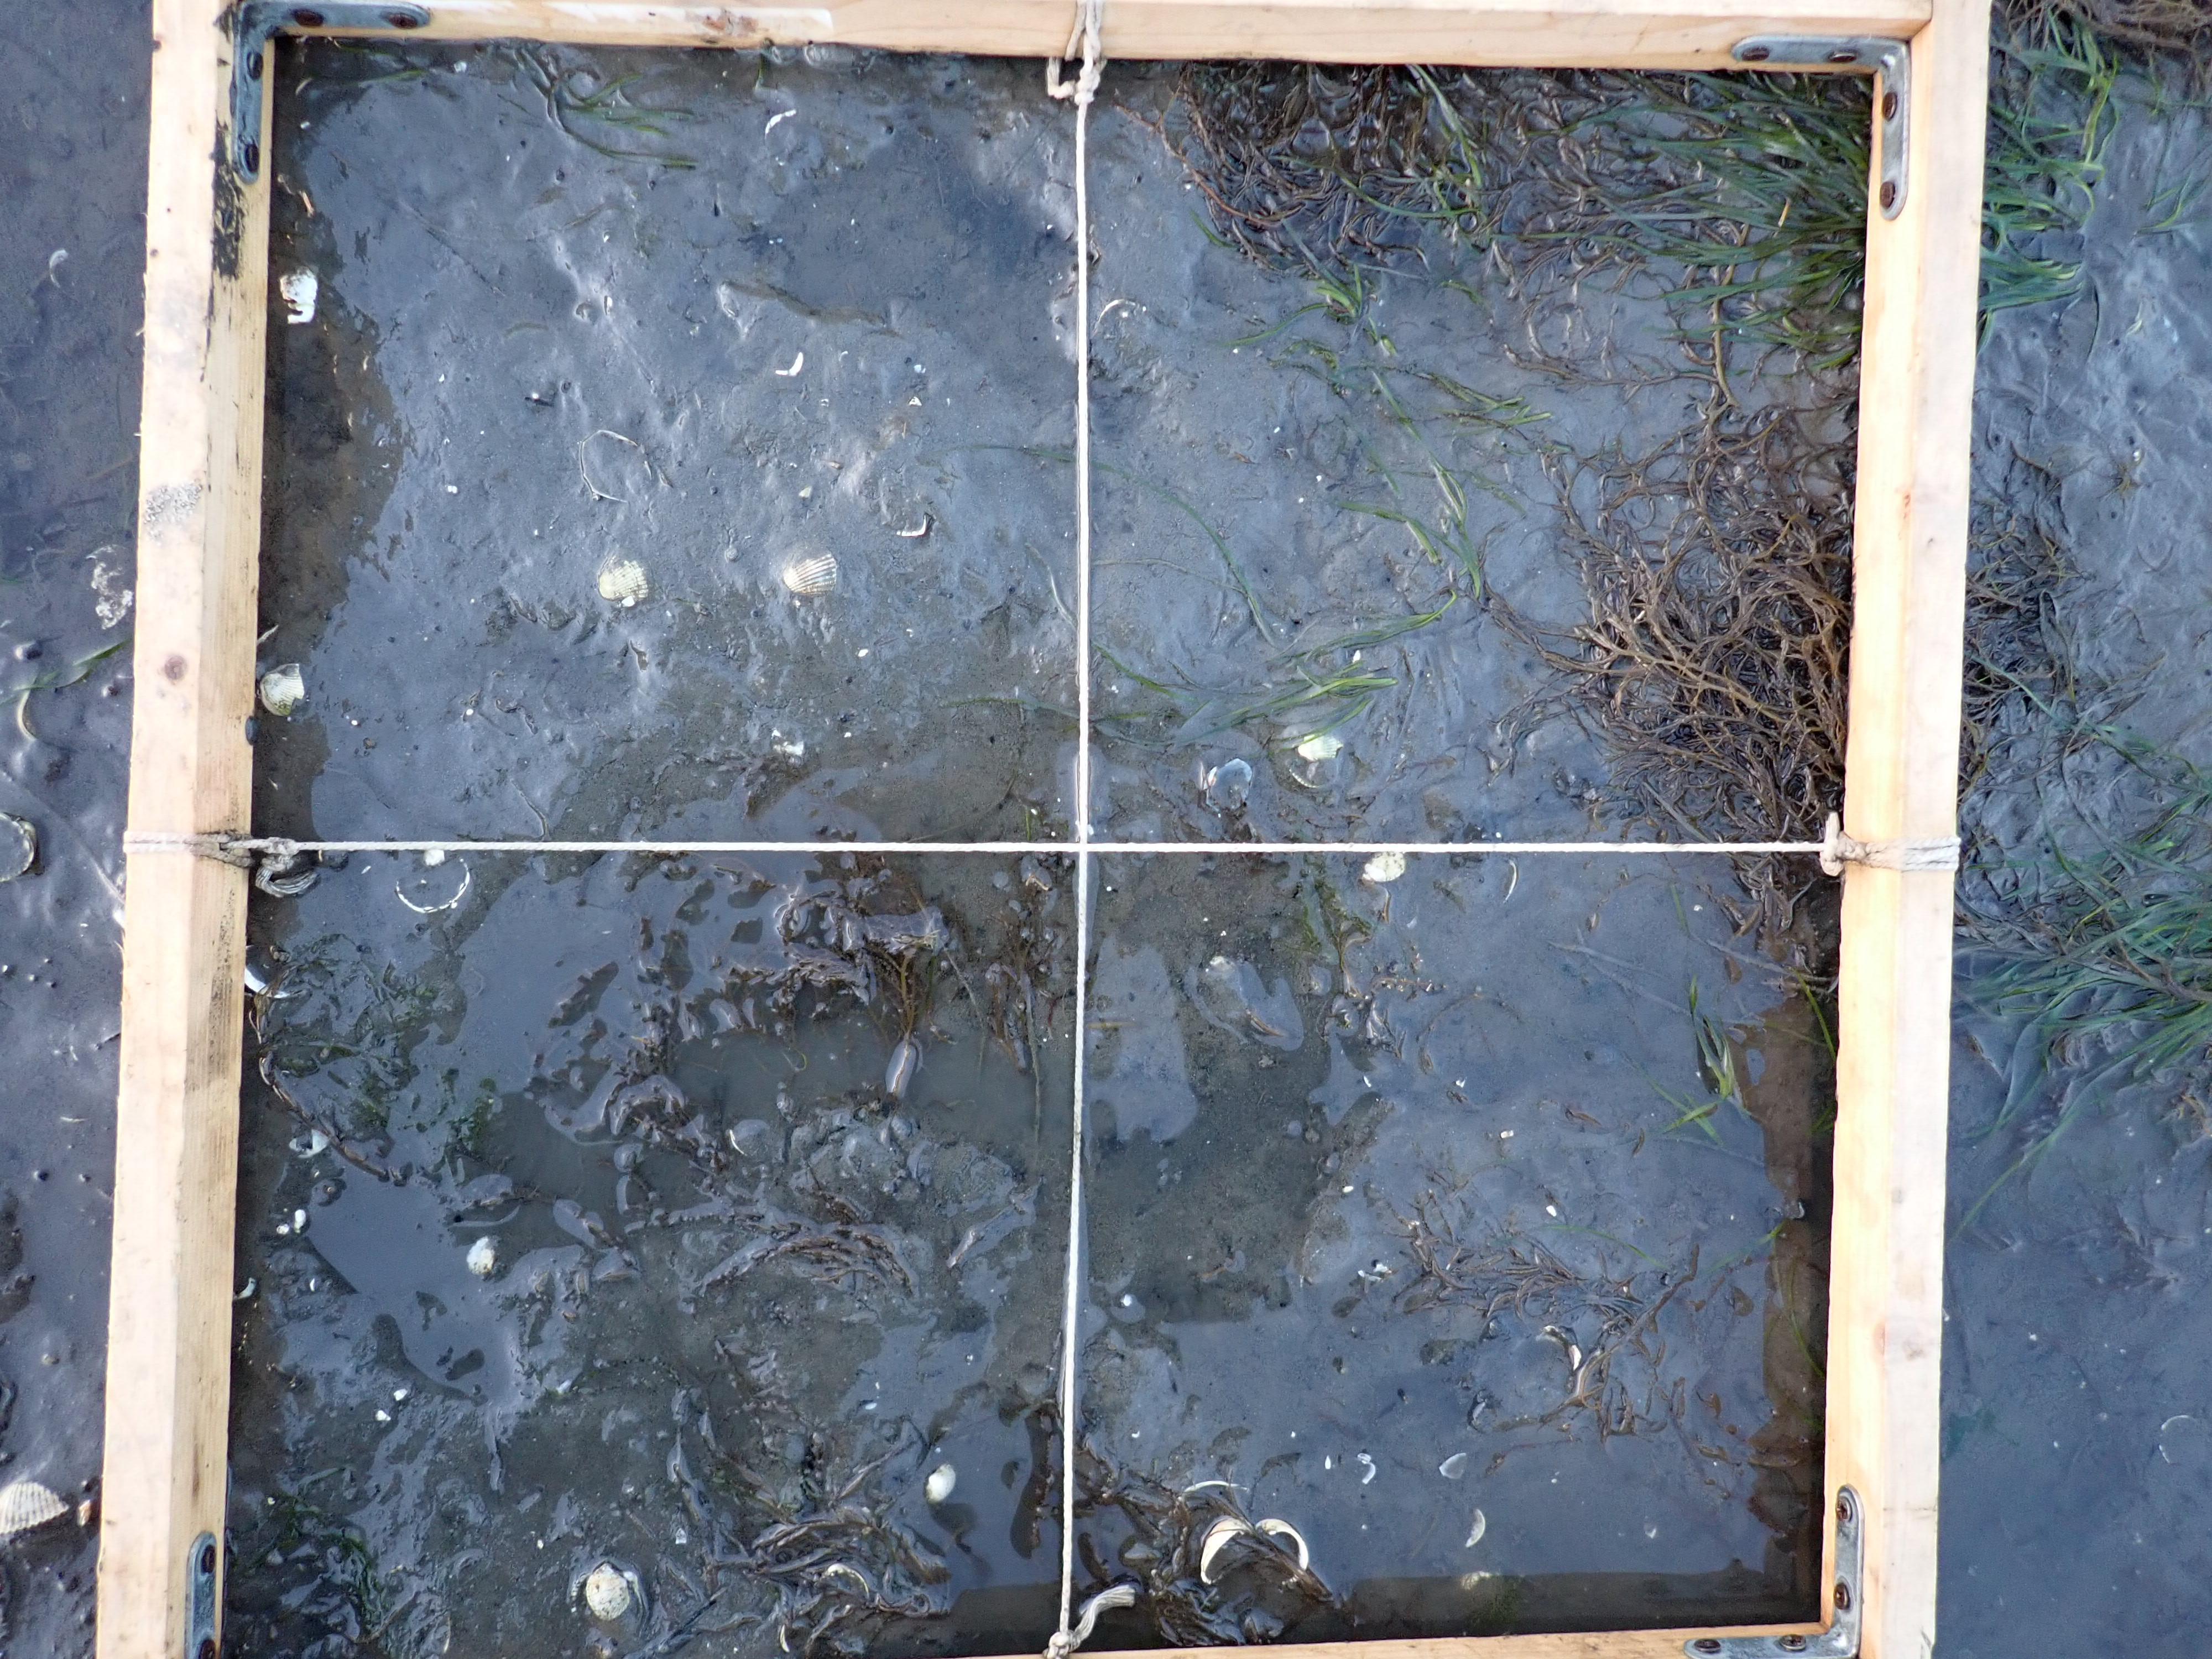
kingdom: Plantae
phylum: Rhodophyta
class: Florideophyceae
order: Gracilariales
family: Gracilariaceae
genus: Gracilaria
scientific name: Gracilaria vermiculophylla
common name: Algae
